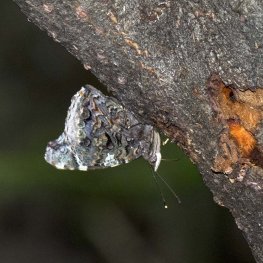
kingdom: Animalia
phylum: Arthropoda
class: Insecta
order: Lepidoptera
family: Nymphalidae
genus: Vanessa
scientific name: Vanessa atalanta
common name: Red Admiral
